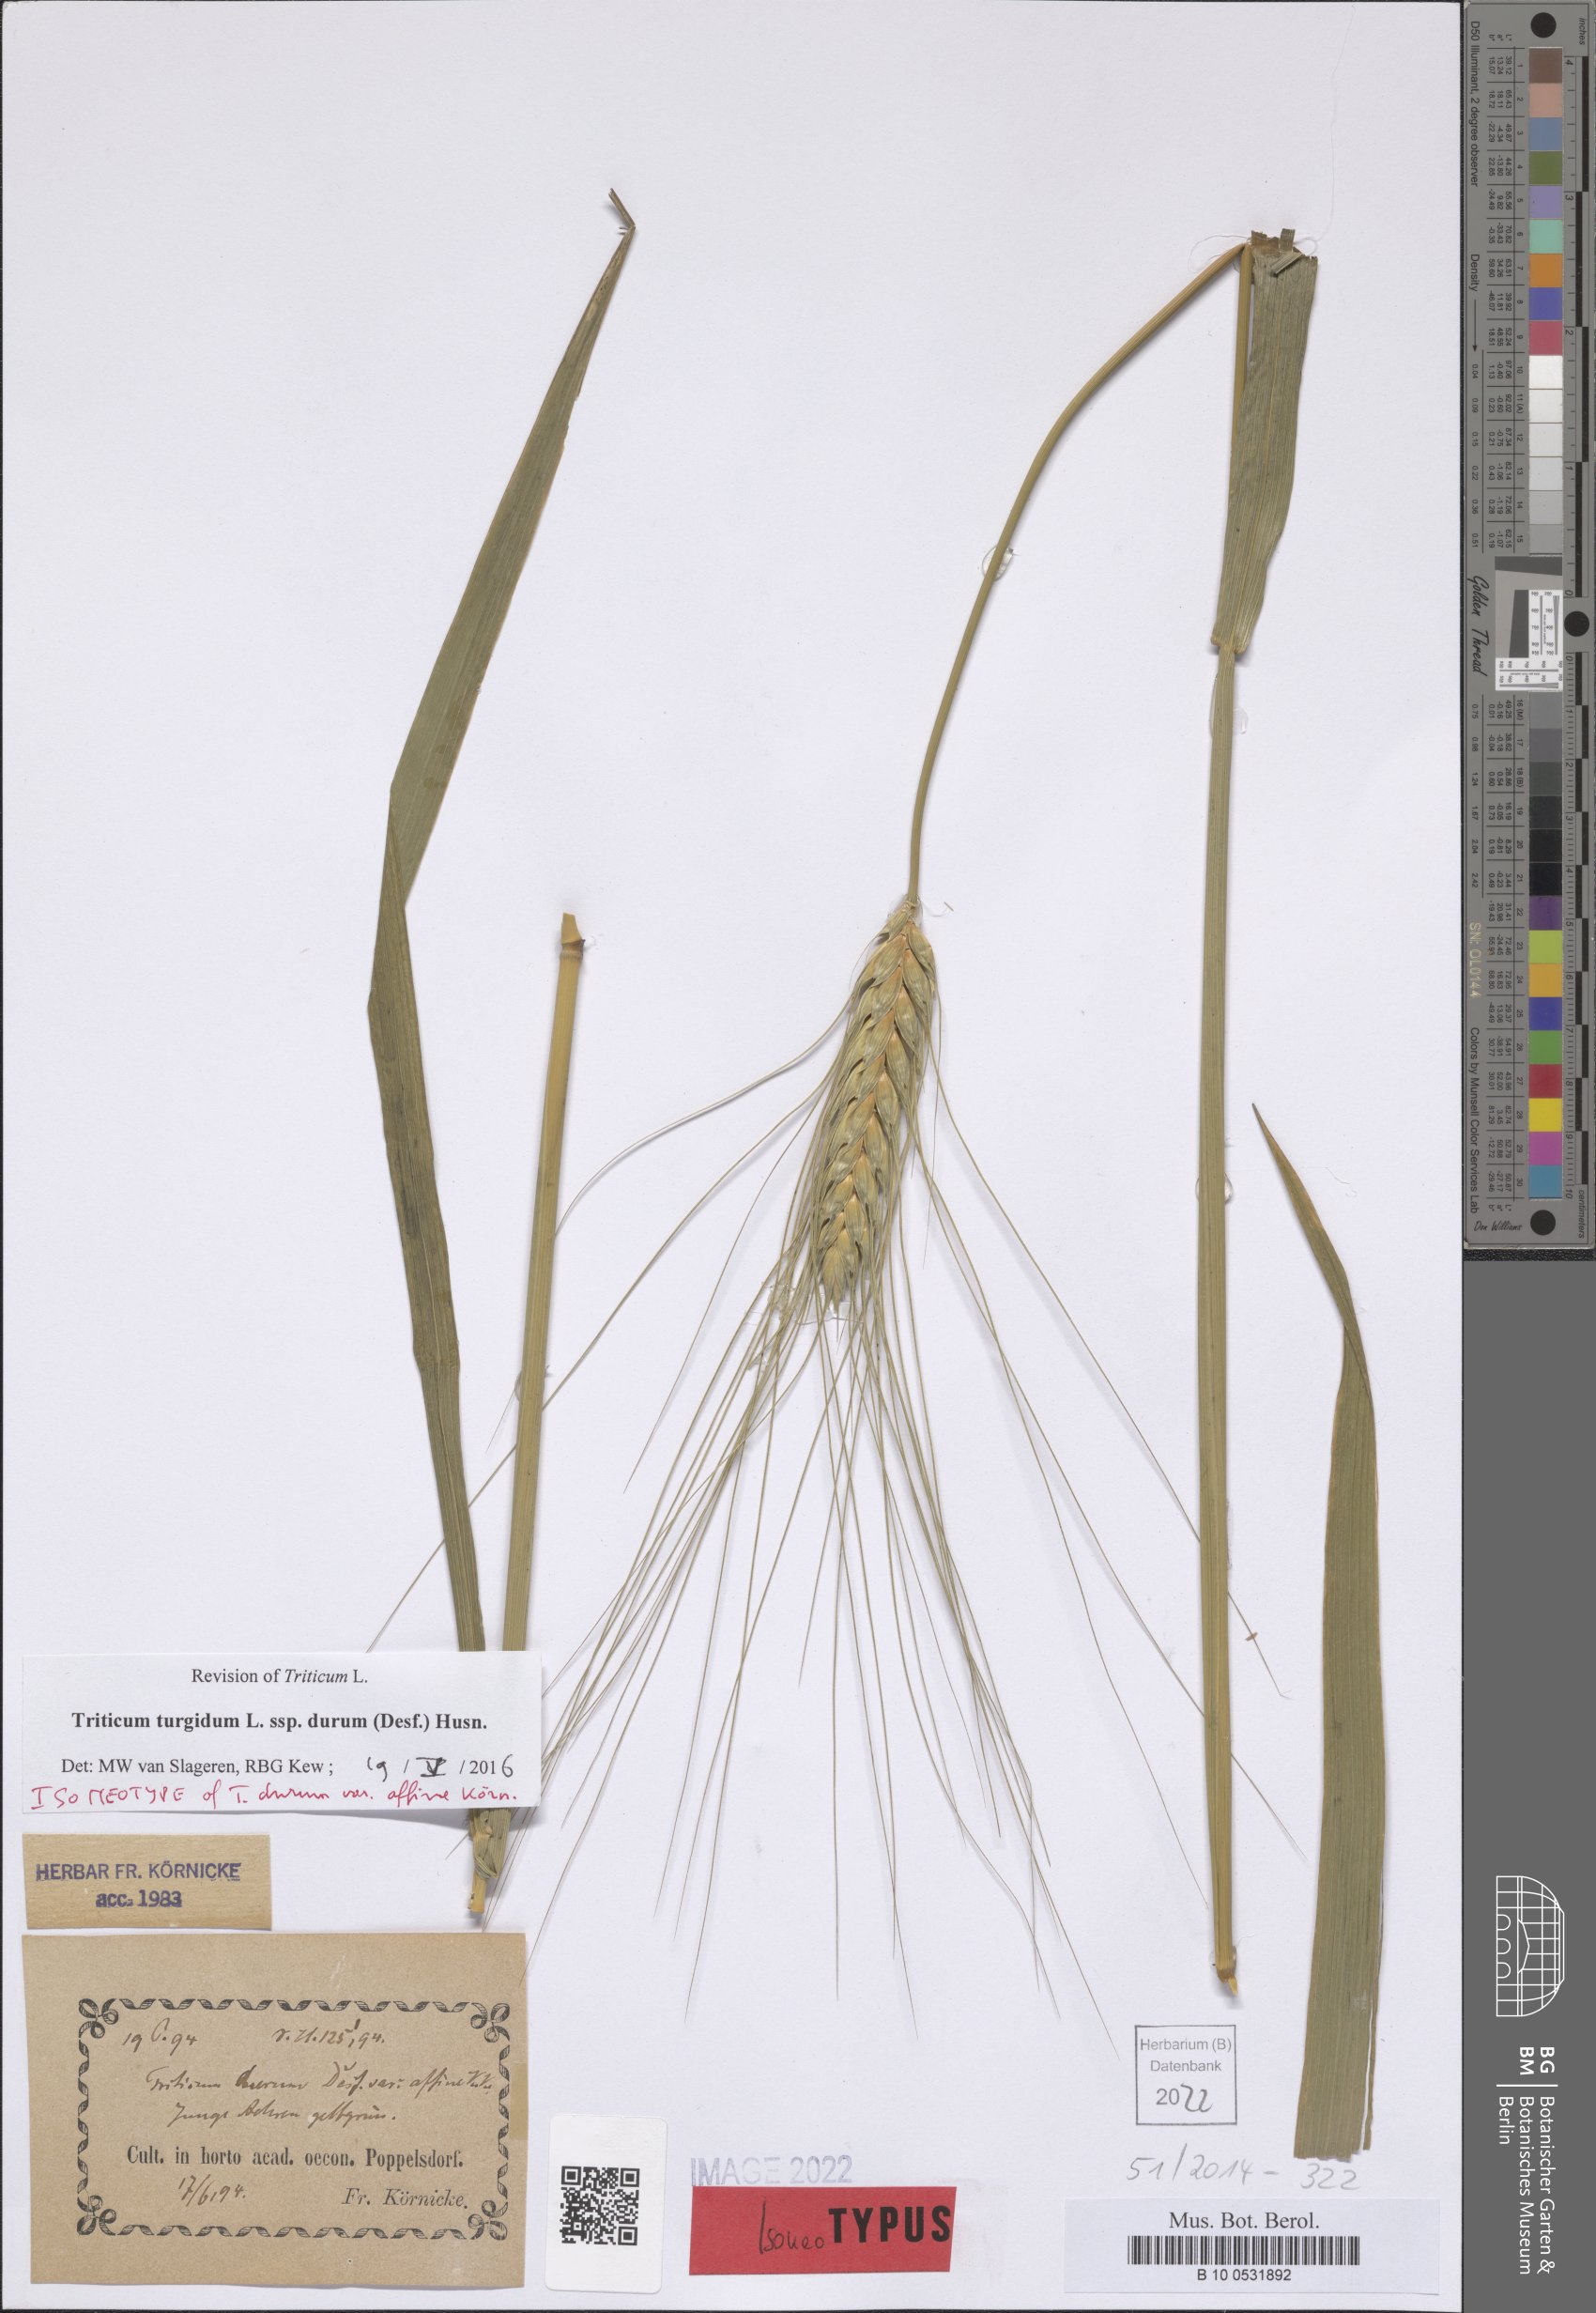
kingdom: Plantae
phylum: Tracheophyta
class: Liliopsida
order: Poales
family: Poaceae
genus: Triticum
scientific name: Triticum turgidum
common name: Rivet wheat
